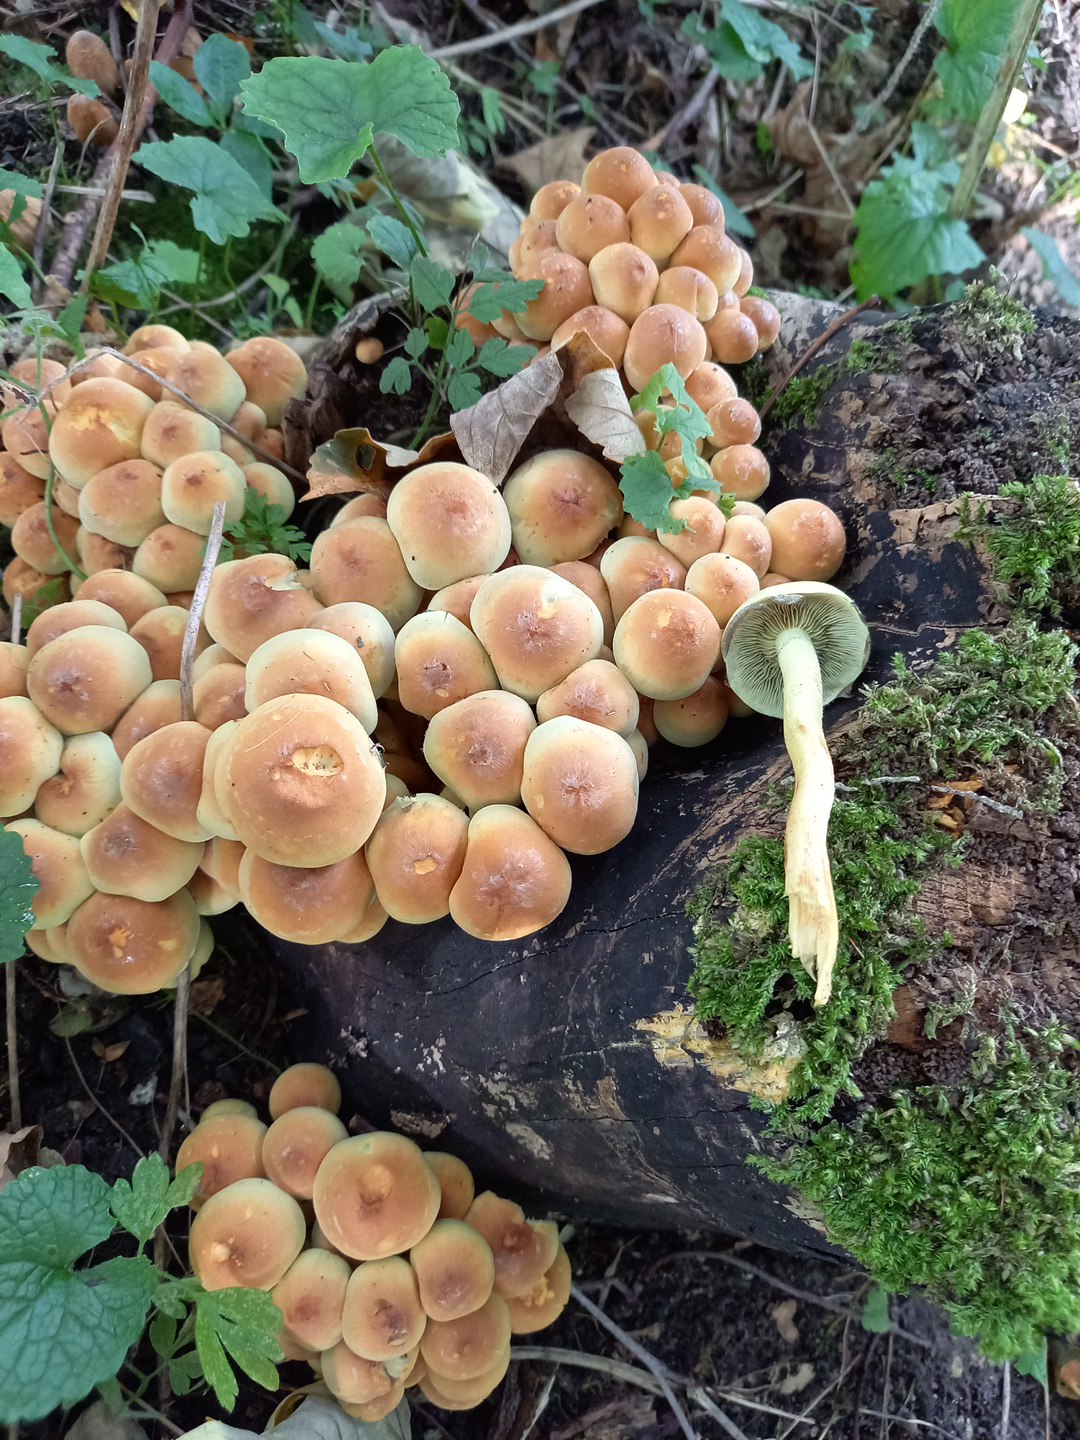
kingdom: Fungi
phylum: Basidiomycota
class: Agaricomycetes
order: Agaricales
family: Strophariaceae
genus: Hypholoma
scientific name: Hypholoma fasciculare
